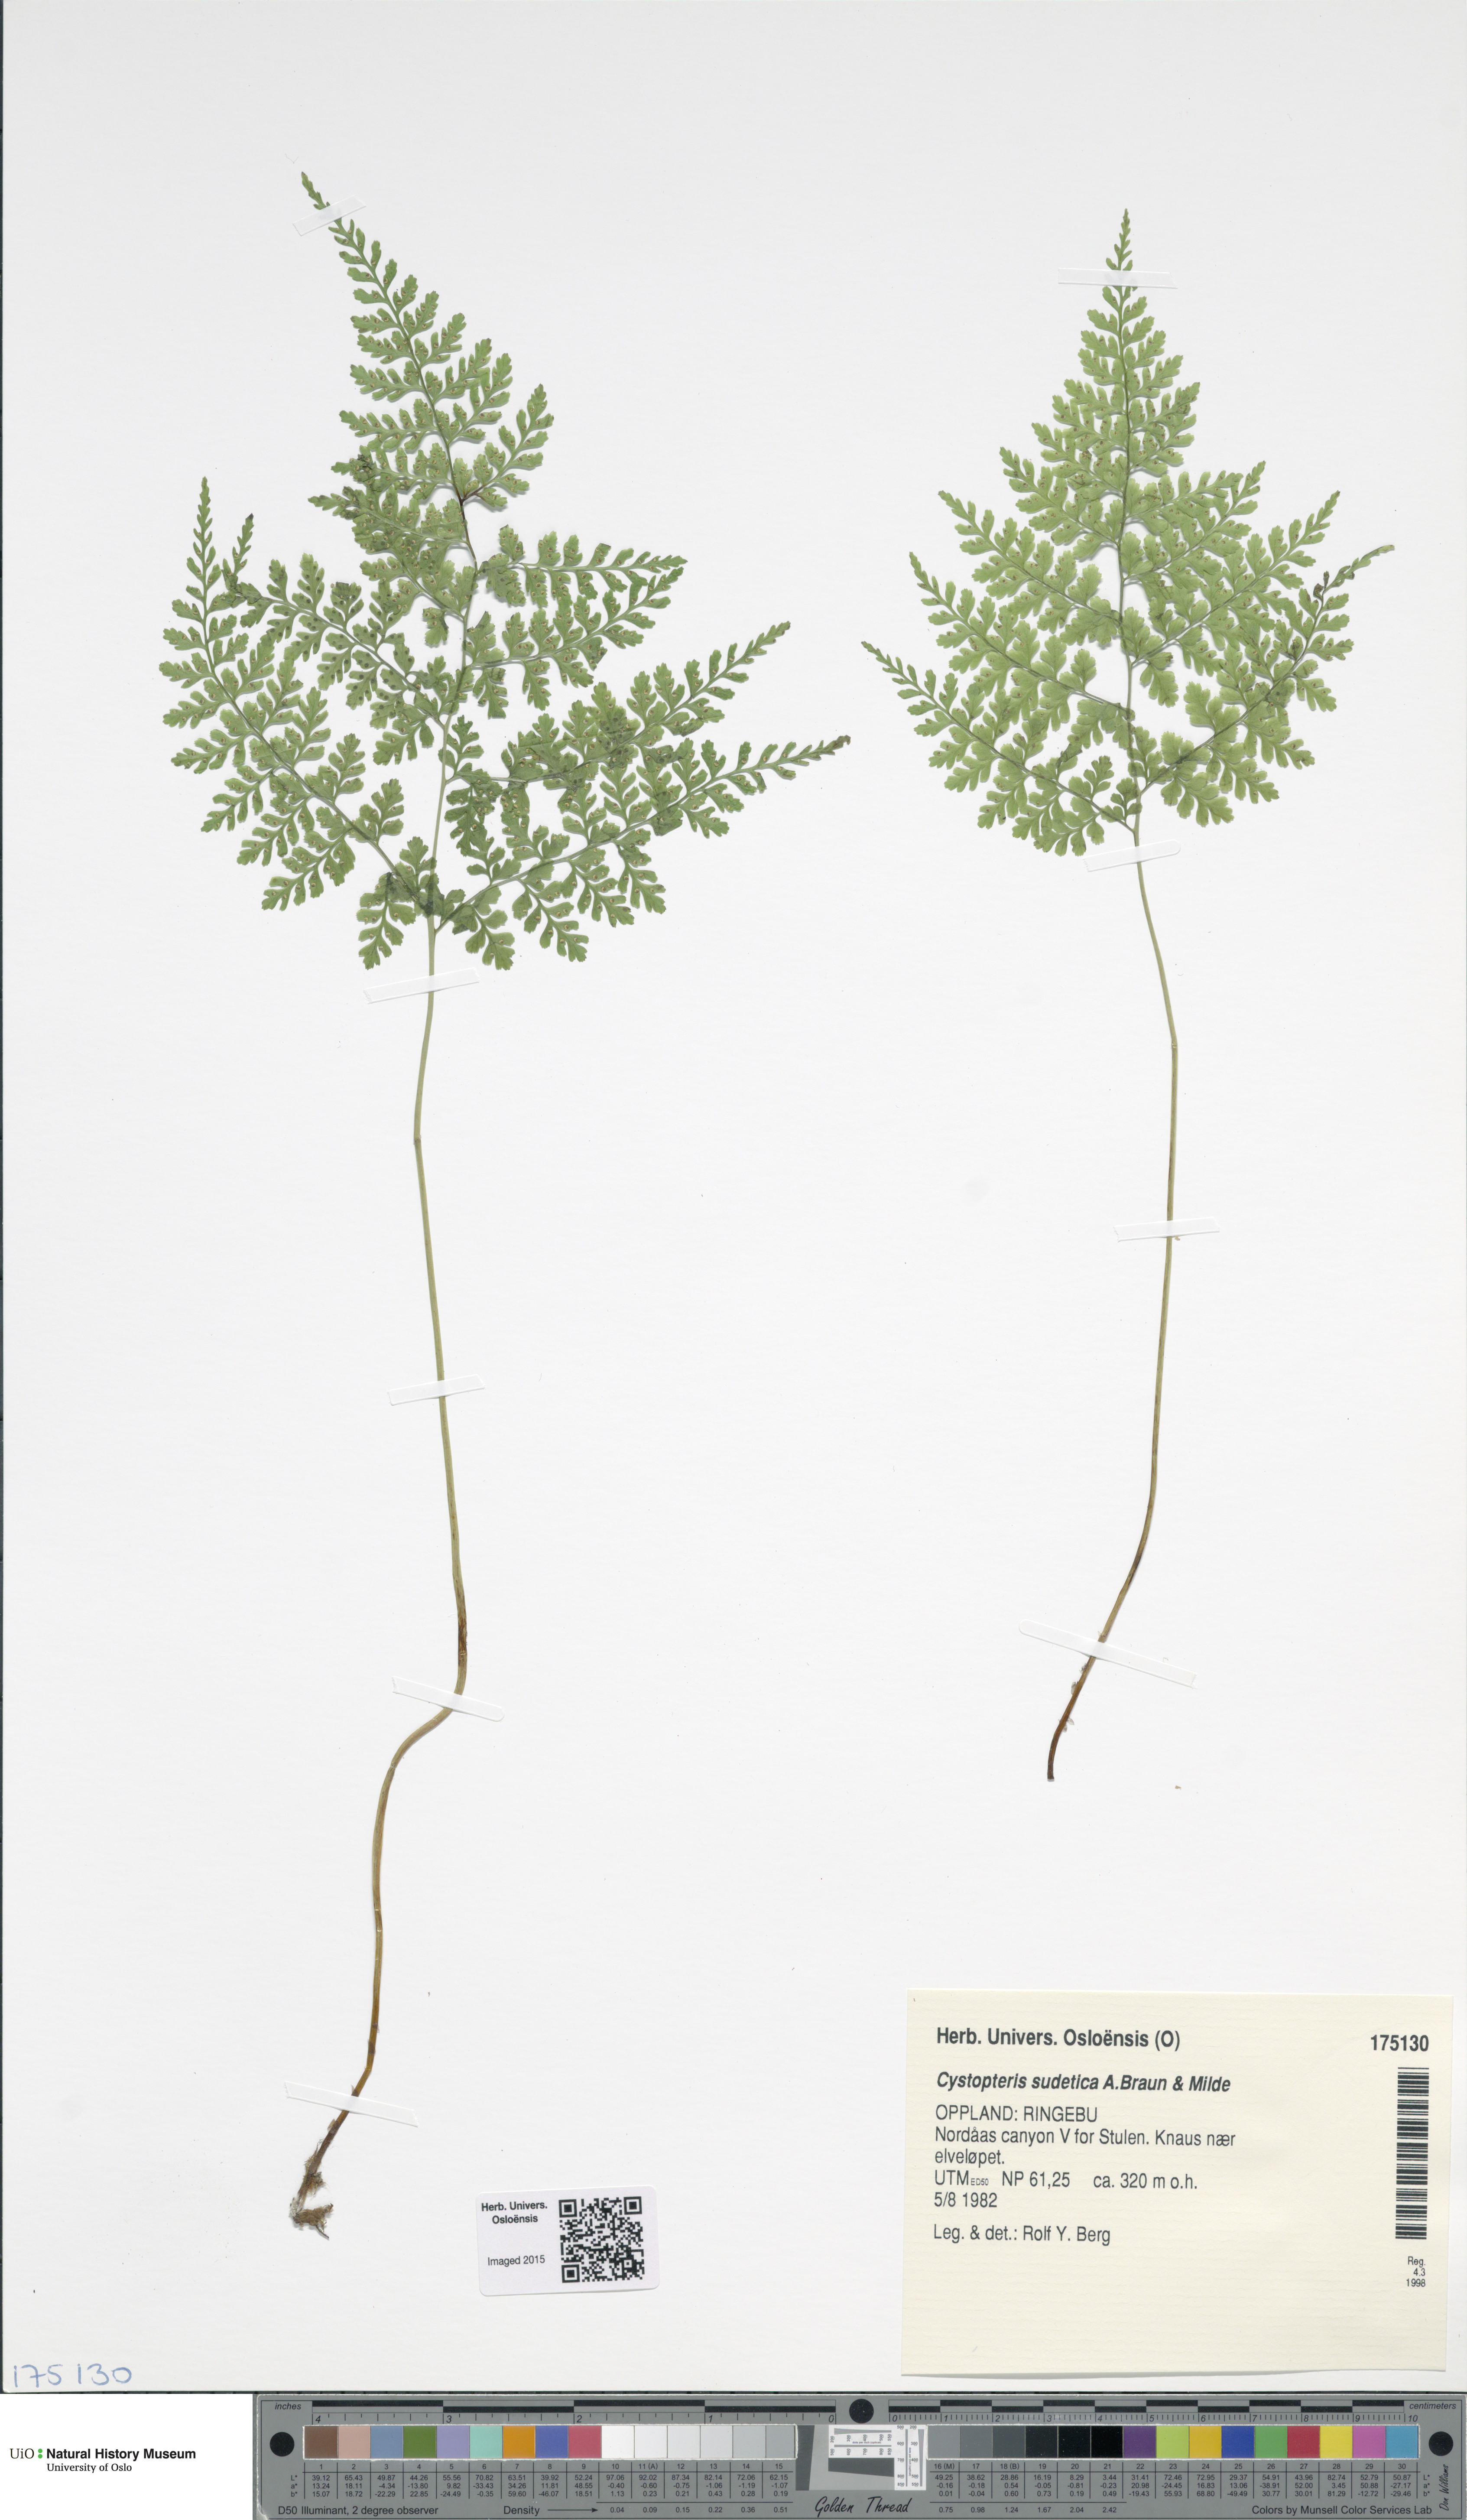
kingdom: Plantae
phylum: Tracheophyta
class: Polypodiopsida
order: Polypodiales
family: Cystopteridaceae
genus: Cystopteris
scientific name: Cystopteris sudetica
